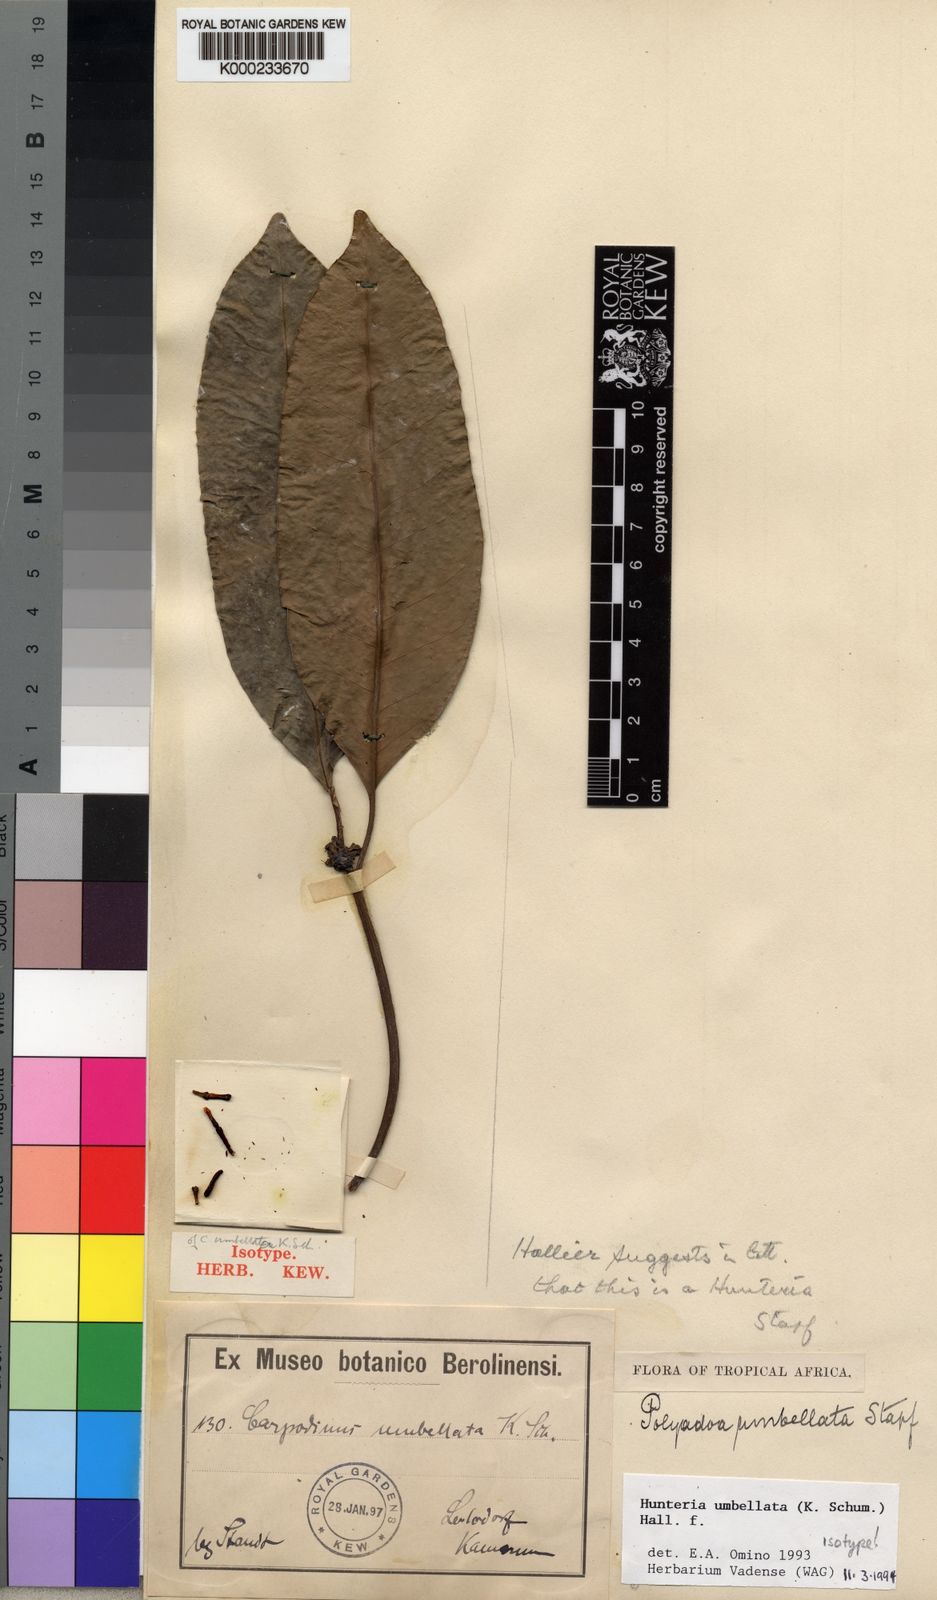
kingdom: Plantae
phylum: Tracheophyta
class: Magnoliopsida
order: Gentianales
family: Apocynaceae
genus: Hunteria
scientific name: Hunteria umbellata
